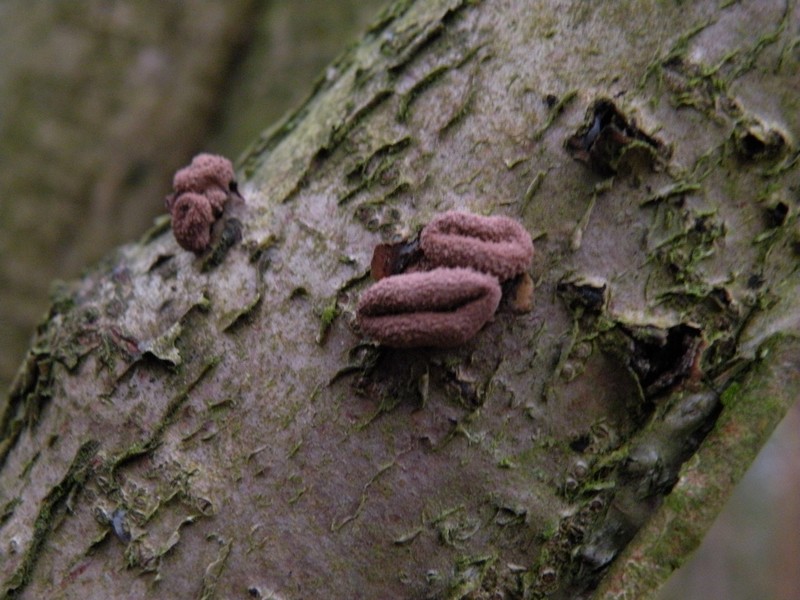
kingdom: Fungi
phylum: Ascomycota
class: Leotiomycetes
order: Helotiales
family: Cenangiaceae
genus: Encoelia
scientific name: Encoelia furfuracea
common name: hassel-læderskive
